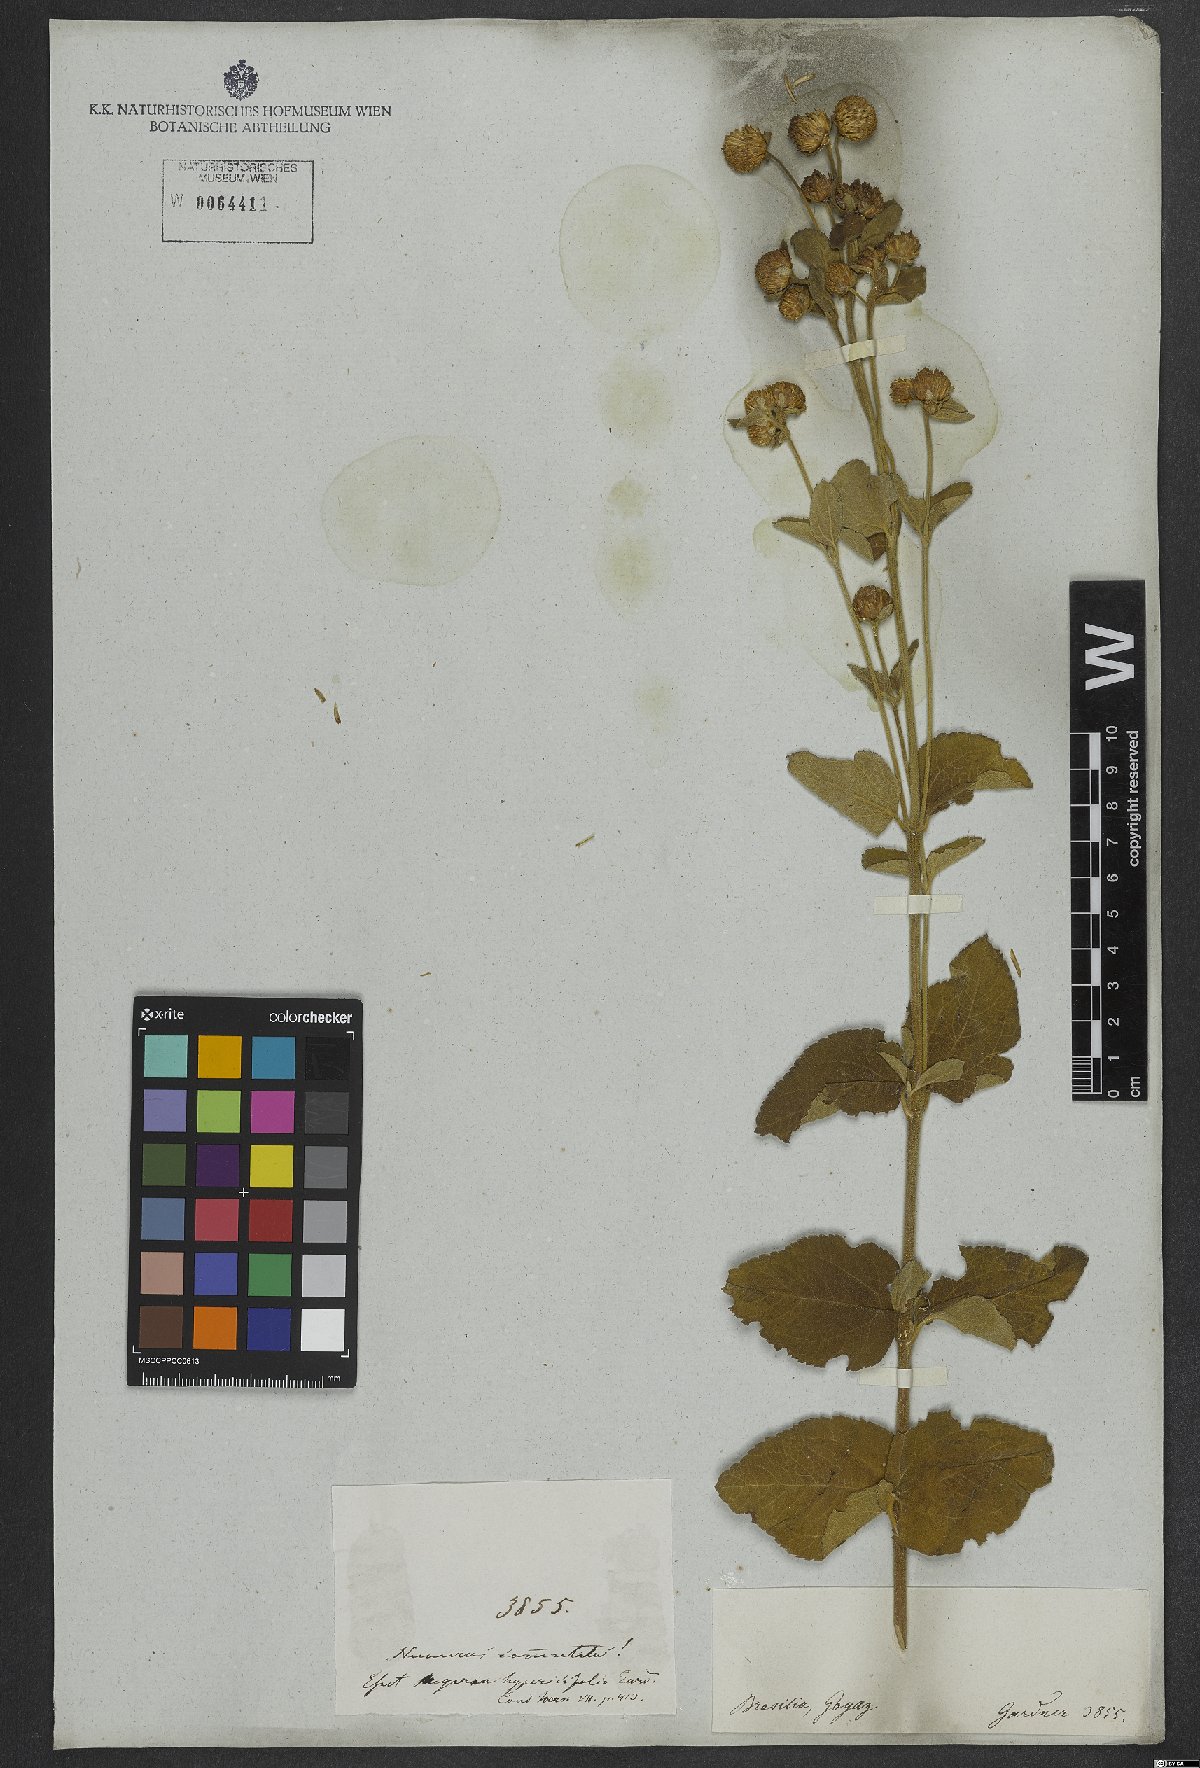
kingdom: Plantae
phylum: Tracheophyta
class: Magnoliopsida
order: Asterales
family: Asteraceae
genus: Verbesina
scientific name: Verbesina
